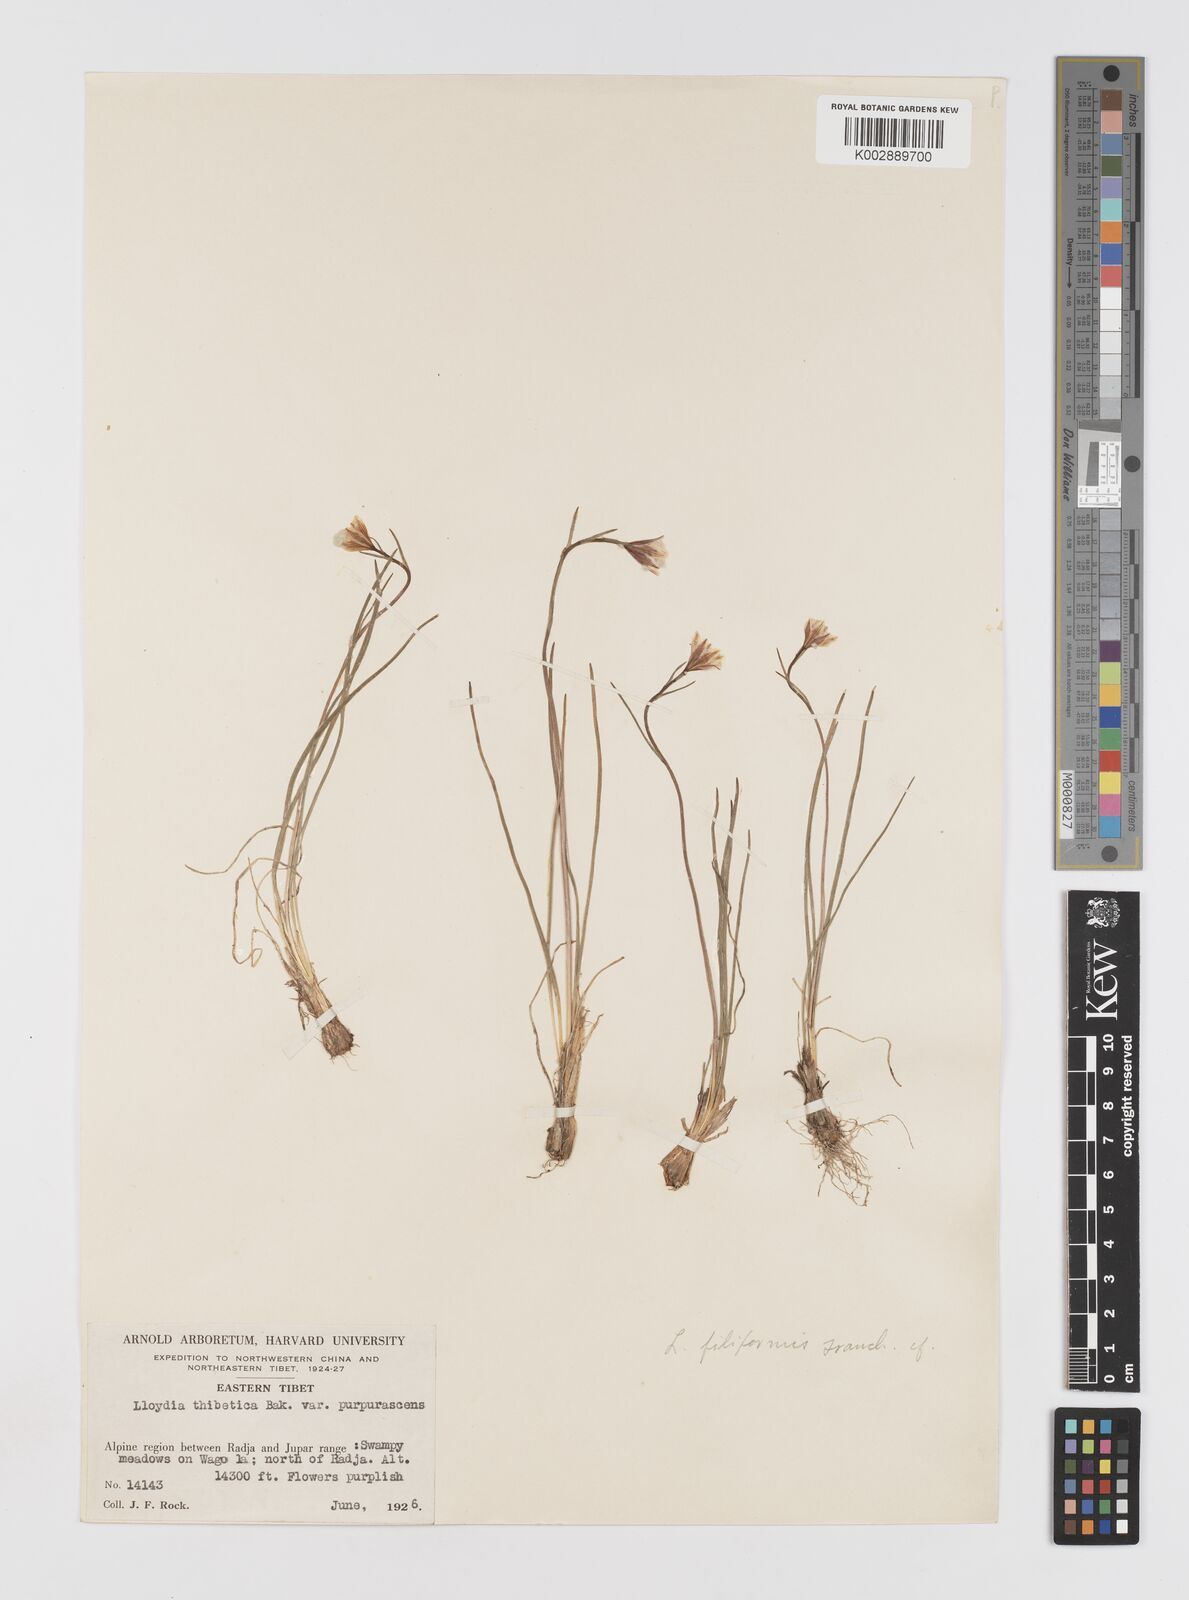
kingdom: Plantae
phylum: Tracheophyta
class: Liliopsida
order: Liliales
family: Liliaceae
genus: Gagea
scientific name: Gagea filiformis
